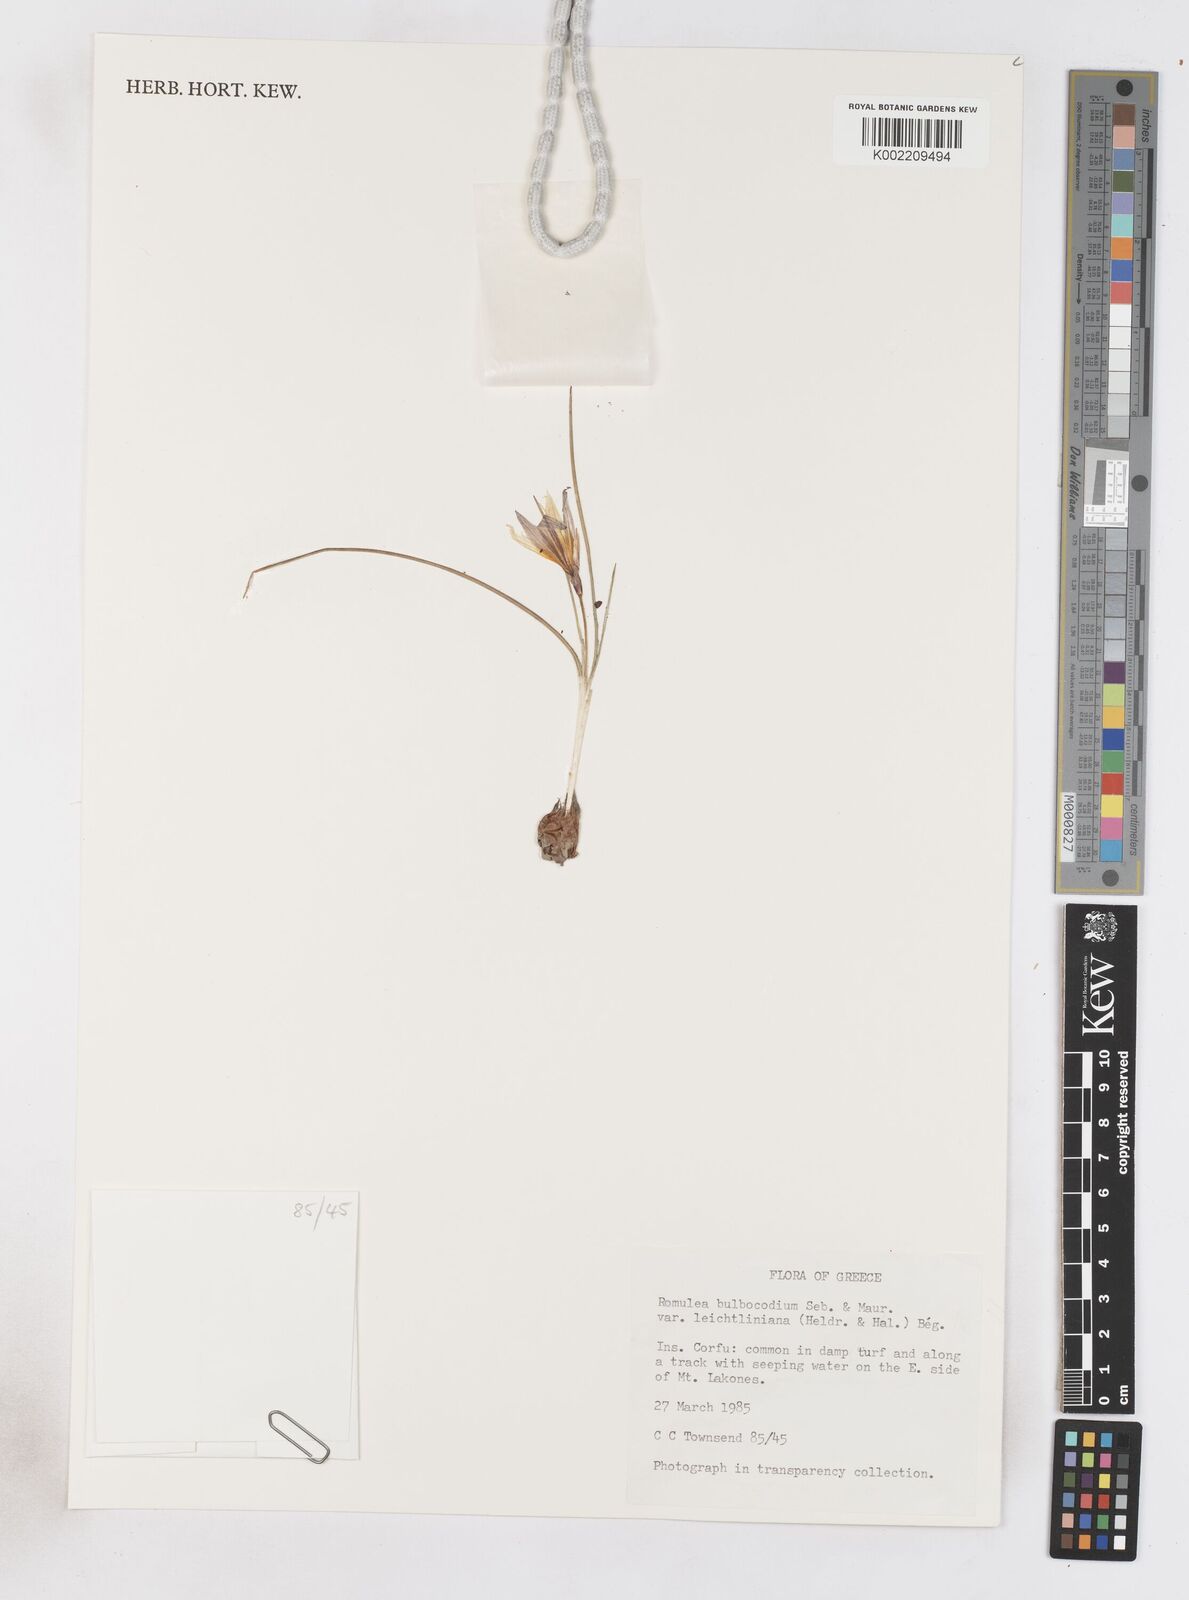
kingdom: Plantae
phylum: Tracheophyta
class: Liliopsida
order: Asparagales
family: Iridaceae
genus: Romulea
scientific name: Romulea bulbocodium
